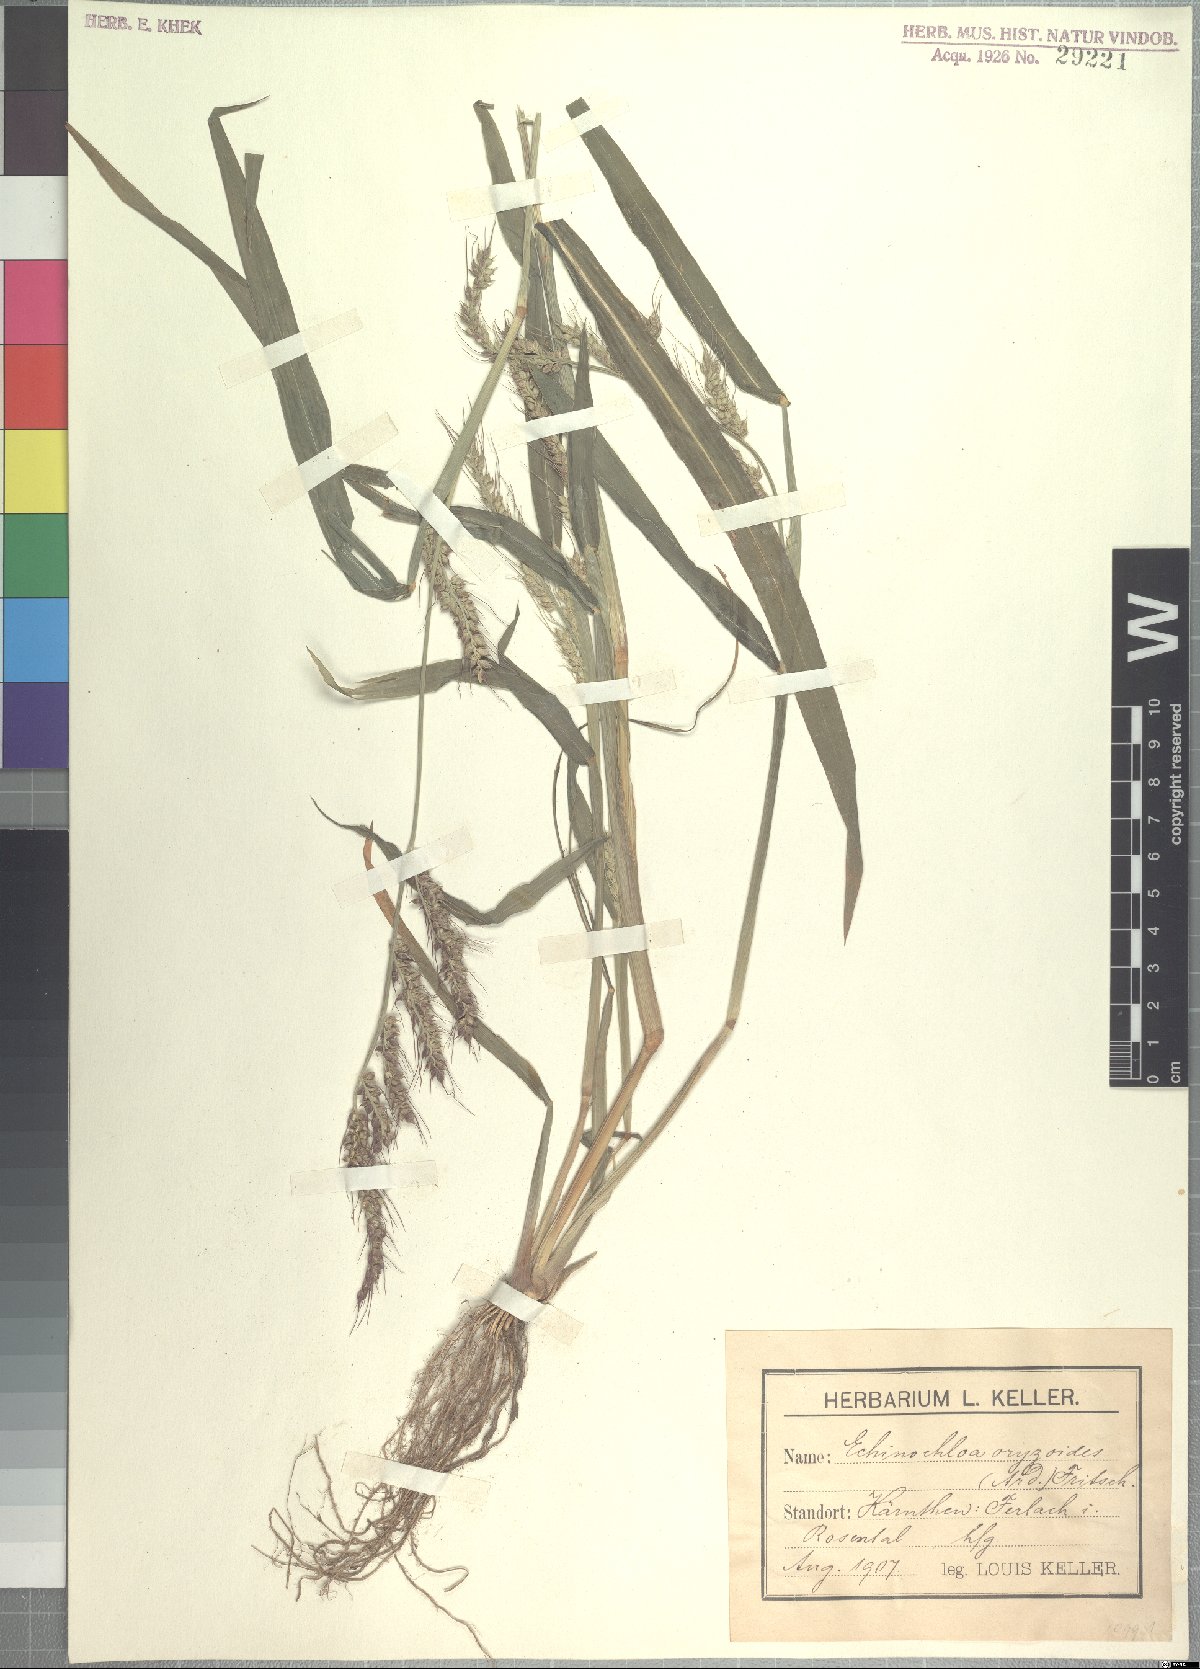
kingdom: Plantae
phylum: Tracheophyta
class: Liliopsida
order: Poales
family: Poaceae
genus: Echinochloa
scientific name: Echinochloa oryzoides
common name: Early water grass
